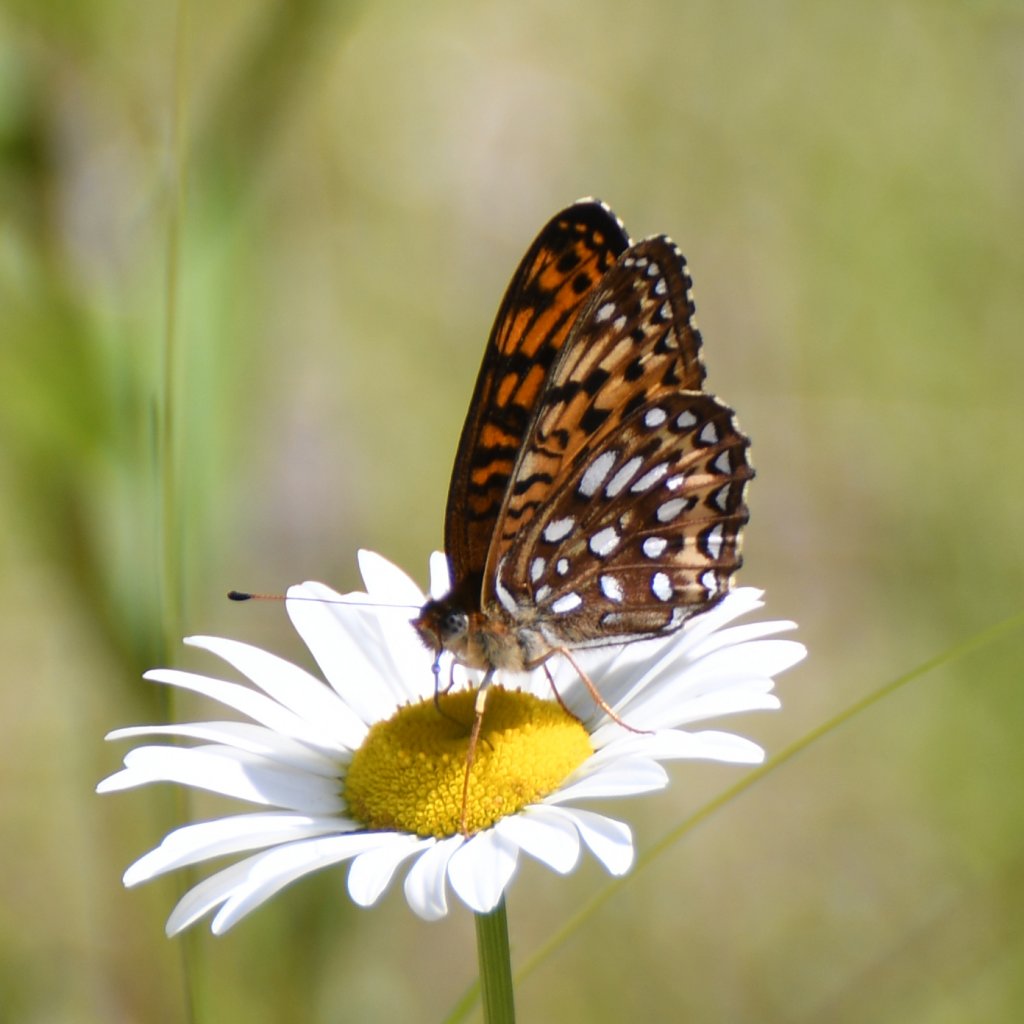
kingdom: Animalia
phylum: Arthropoda
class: Insecta
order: Lepidoptera
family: Nymphalidae
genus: Speyeria
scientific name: Speyeria atlantis
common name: Atlantis Fritillary
